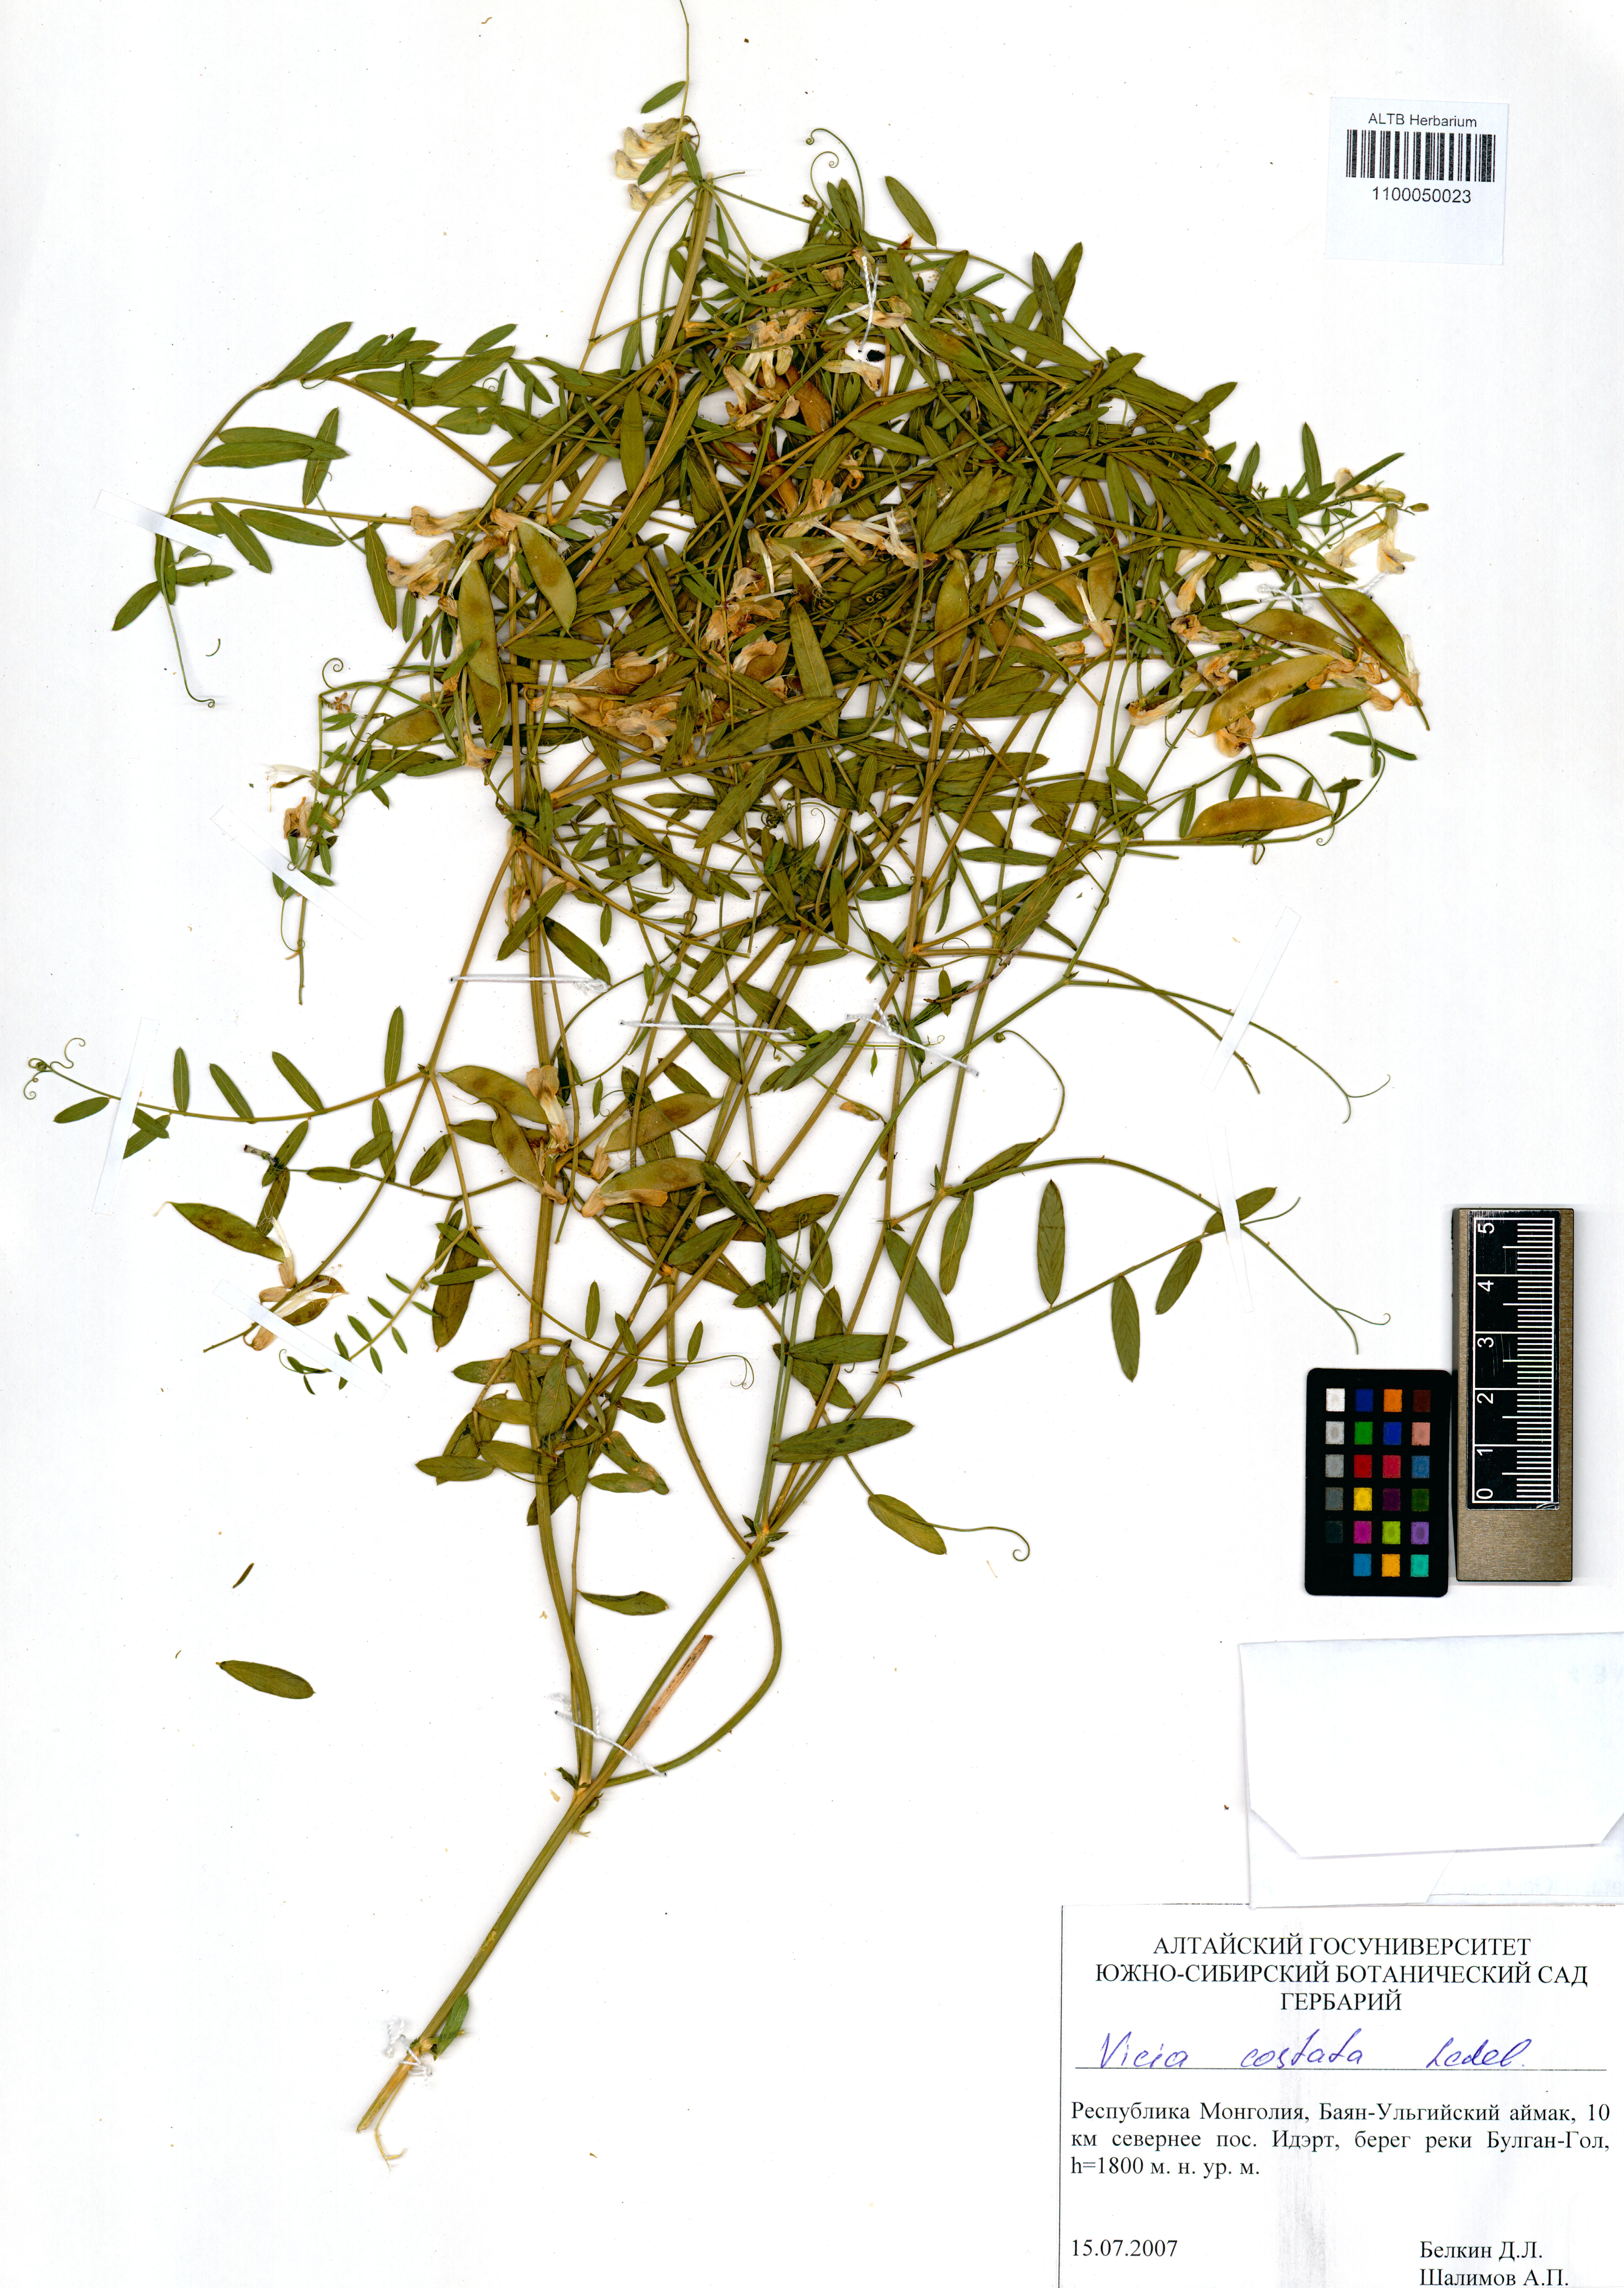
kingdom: Plantae
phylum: Tracheophyta
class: Magnoliopsida
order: Fabales
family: Fabaceae
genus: Vicia
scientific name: Vicia costata
